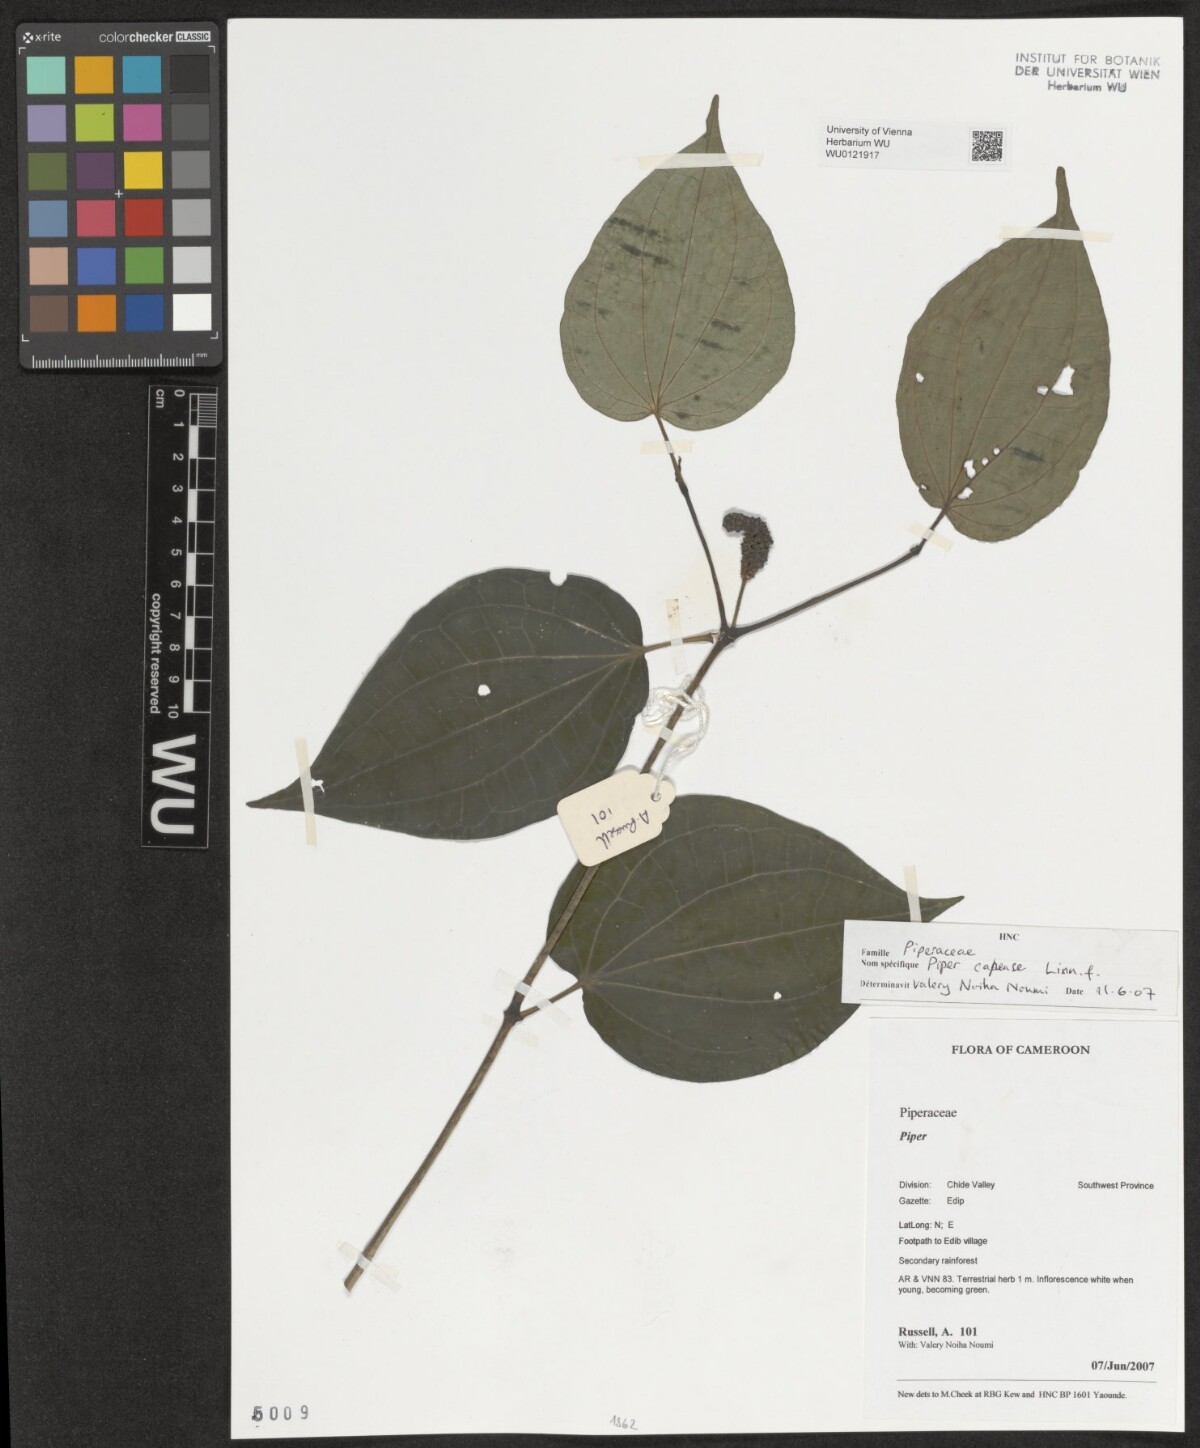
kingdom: Plantae
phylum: Tracheophyta
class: Magnoliopsida
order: Piperales
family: Piperaceae
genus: Piper
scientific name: Piper capense
